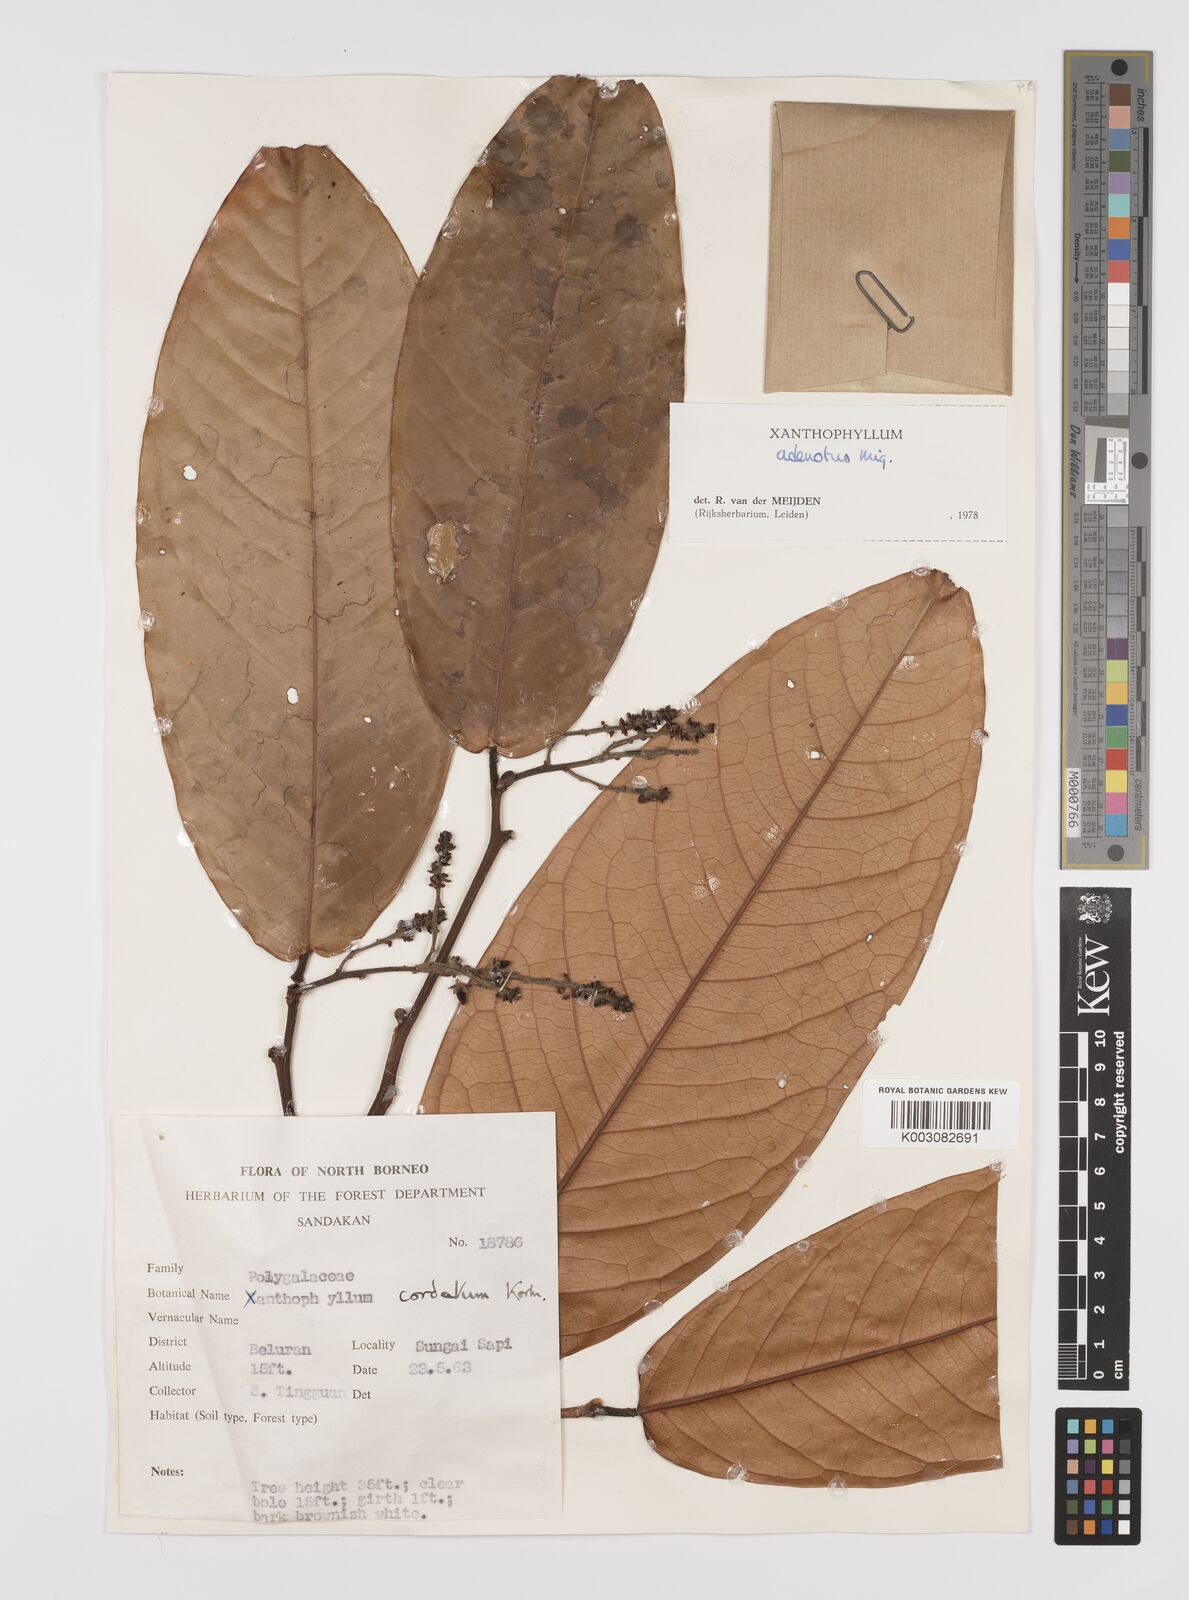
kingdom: Plantae
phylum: Tracheophyta
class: Magnoliopsida
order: Fabales
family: Polygalaceae
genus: Xanthophyllum
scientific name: Xanthophyllum adenotus
